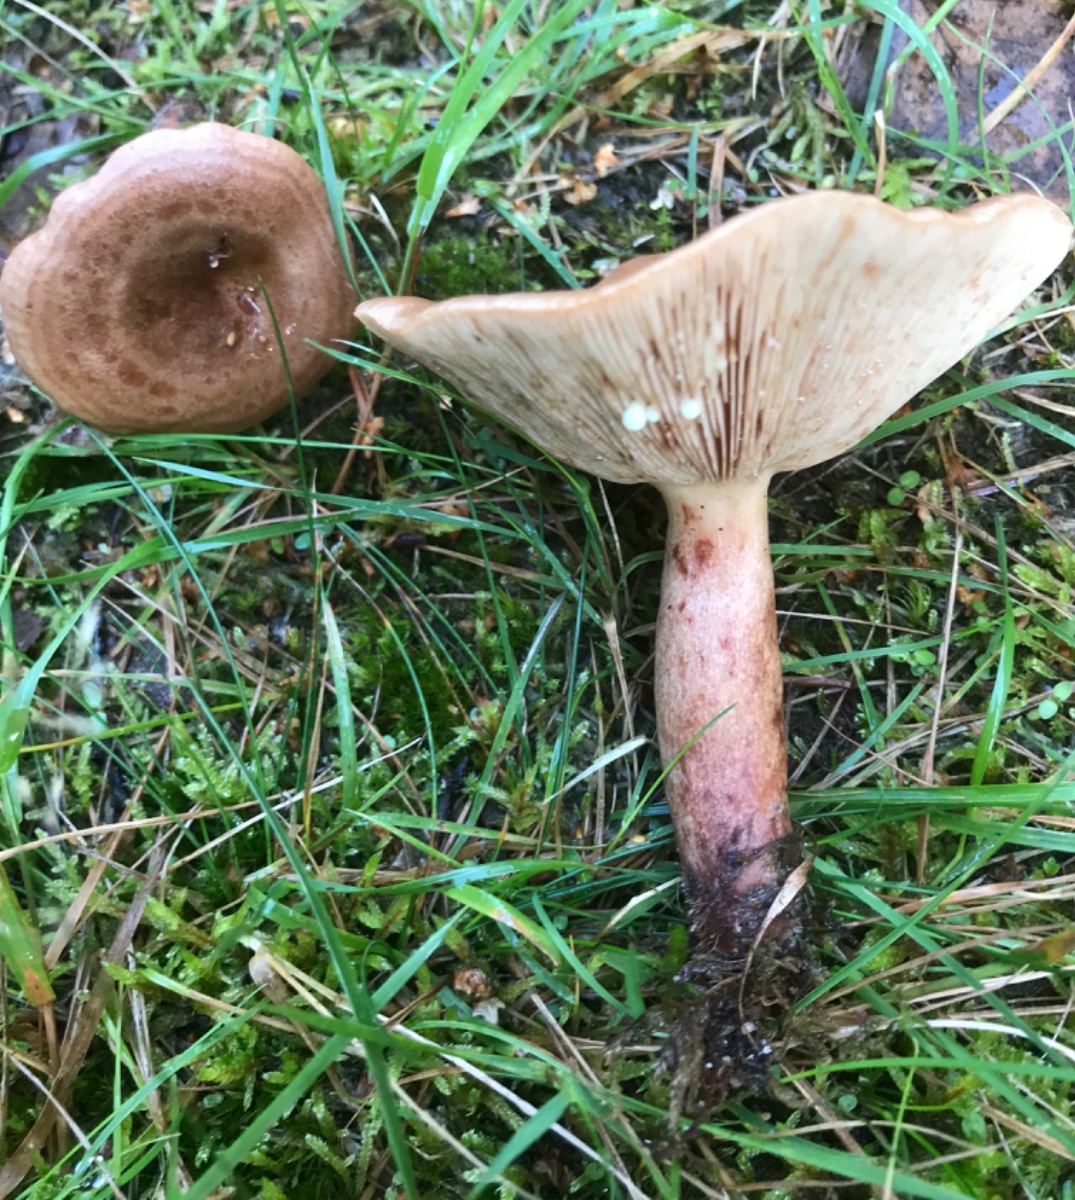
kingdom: Fungi
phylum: Basidiomycota
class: Agaricomycetes
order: Russulales
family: Russulaceae
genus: Lactarius
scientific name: Lactarius quietus
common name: ege-mælkehat
